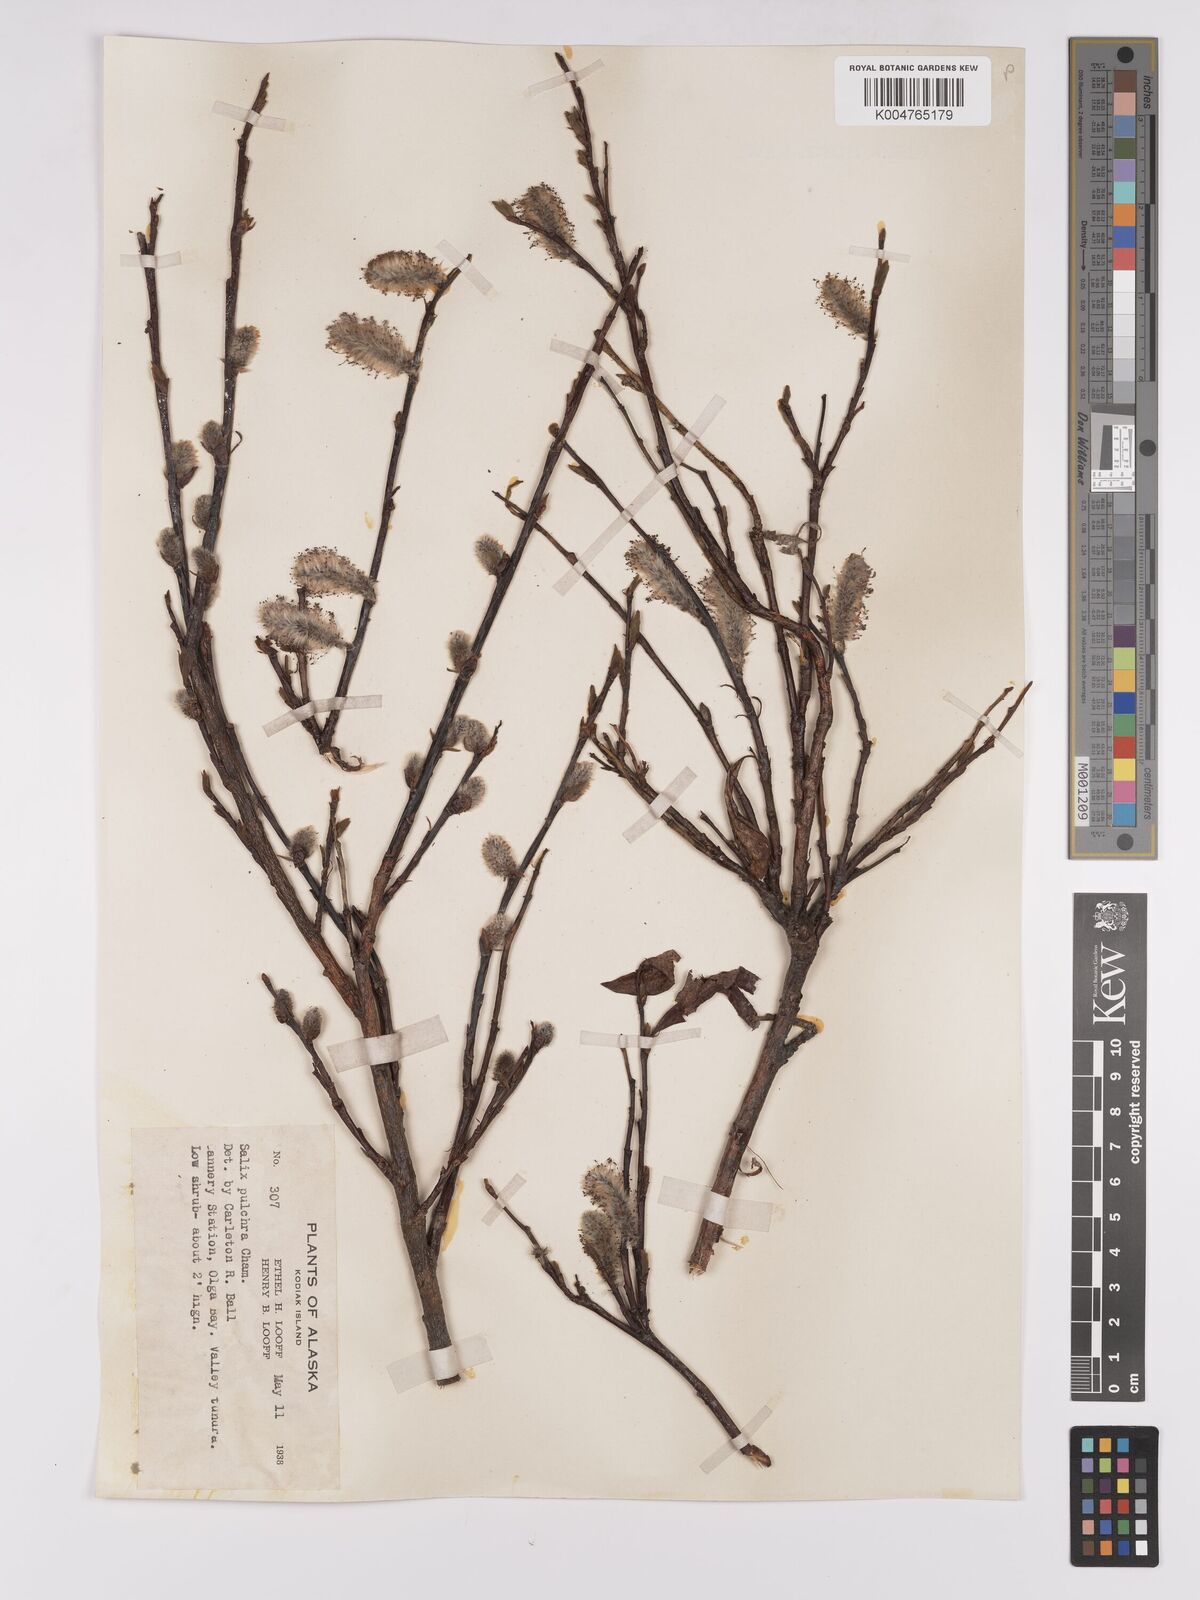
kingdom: Plantae
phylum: Tracheophyta
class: Magnoliopsida
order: Malpighiales
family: Salicaceae
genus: Salix
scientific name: Salix
